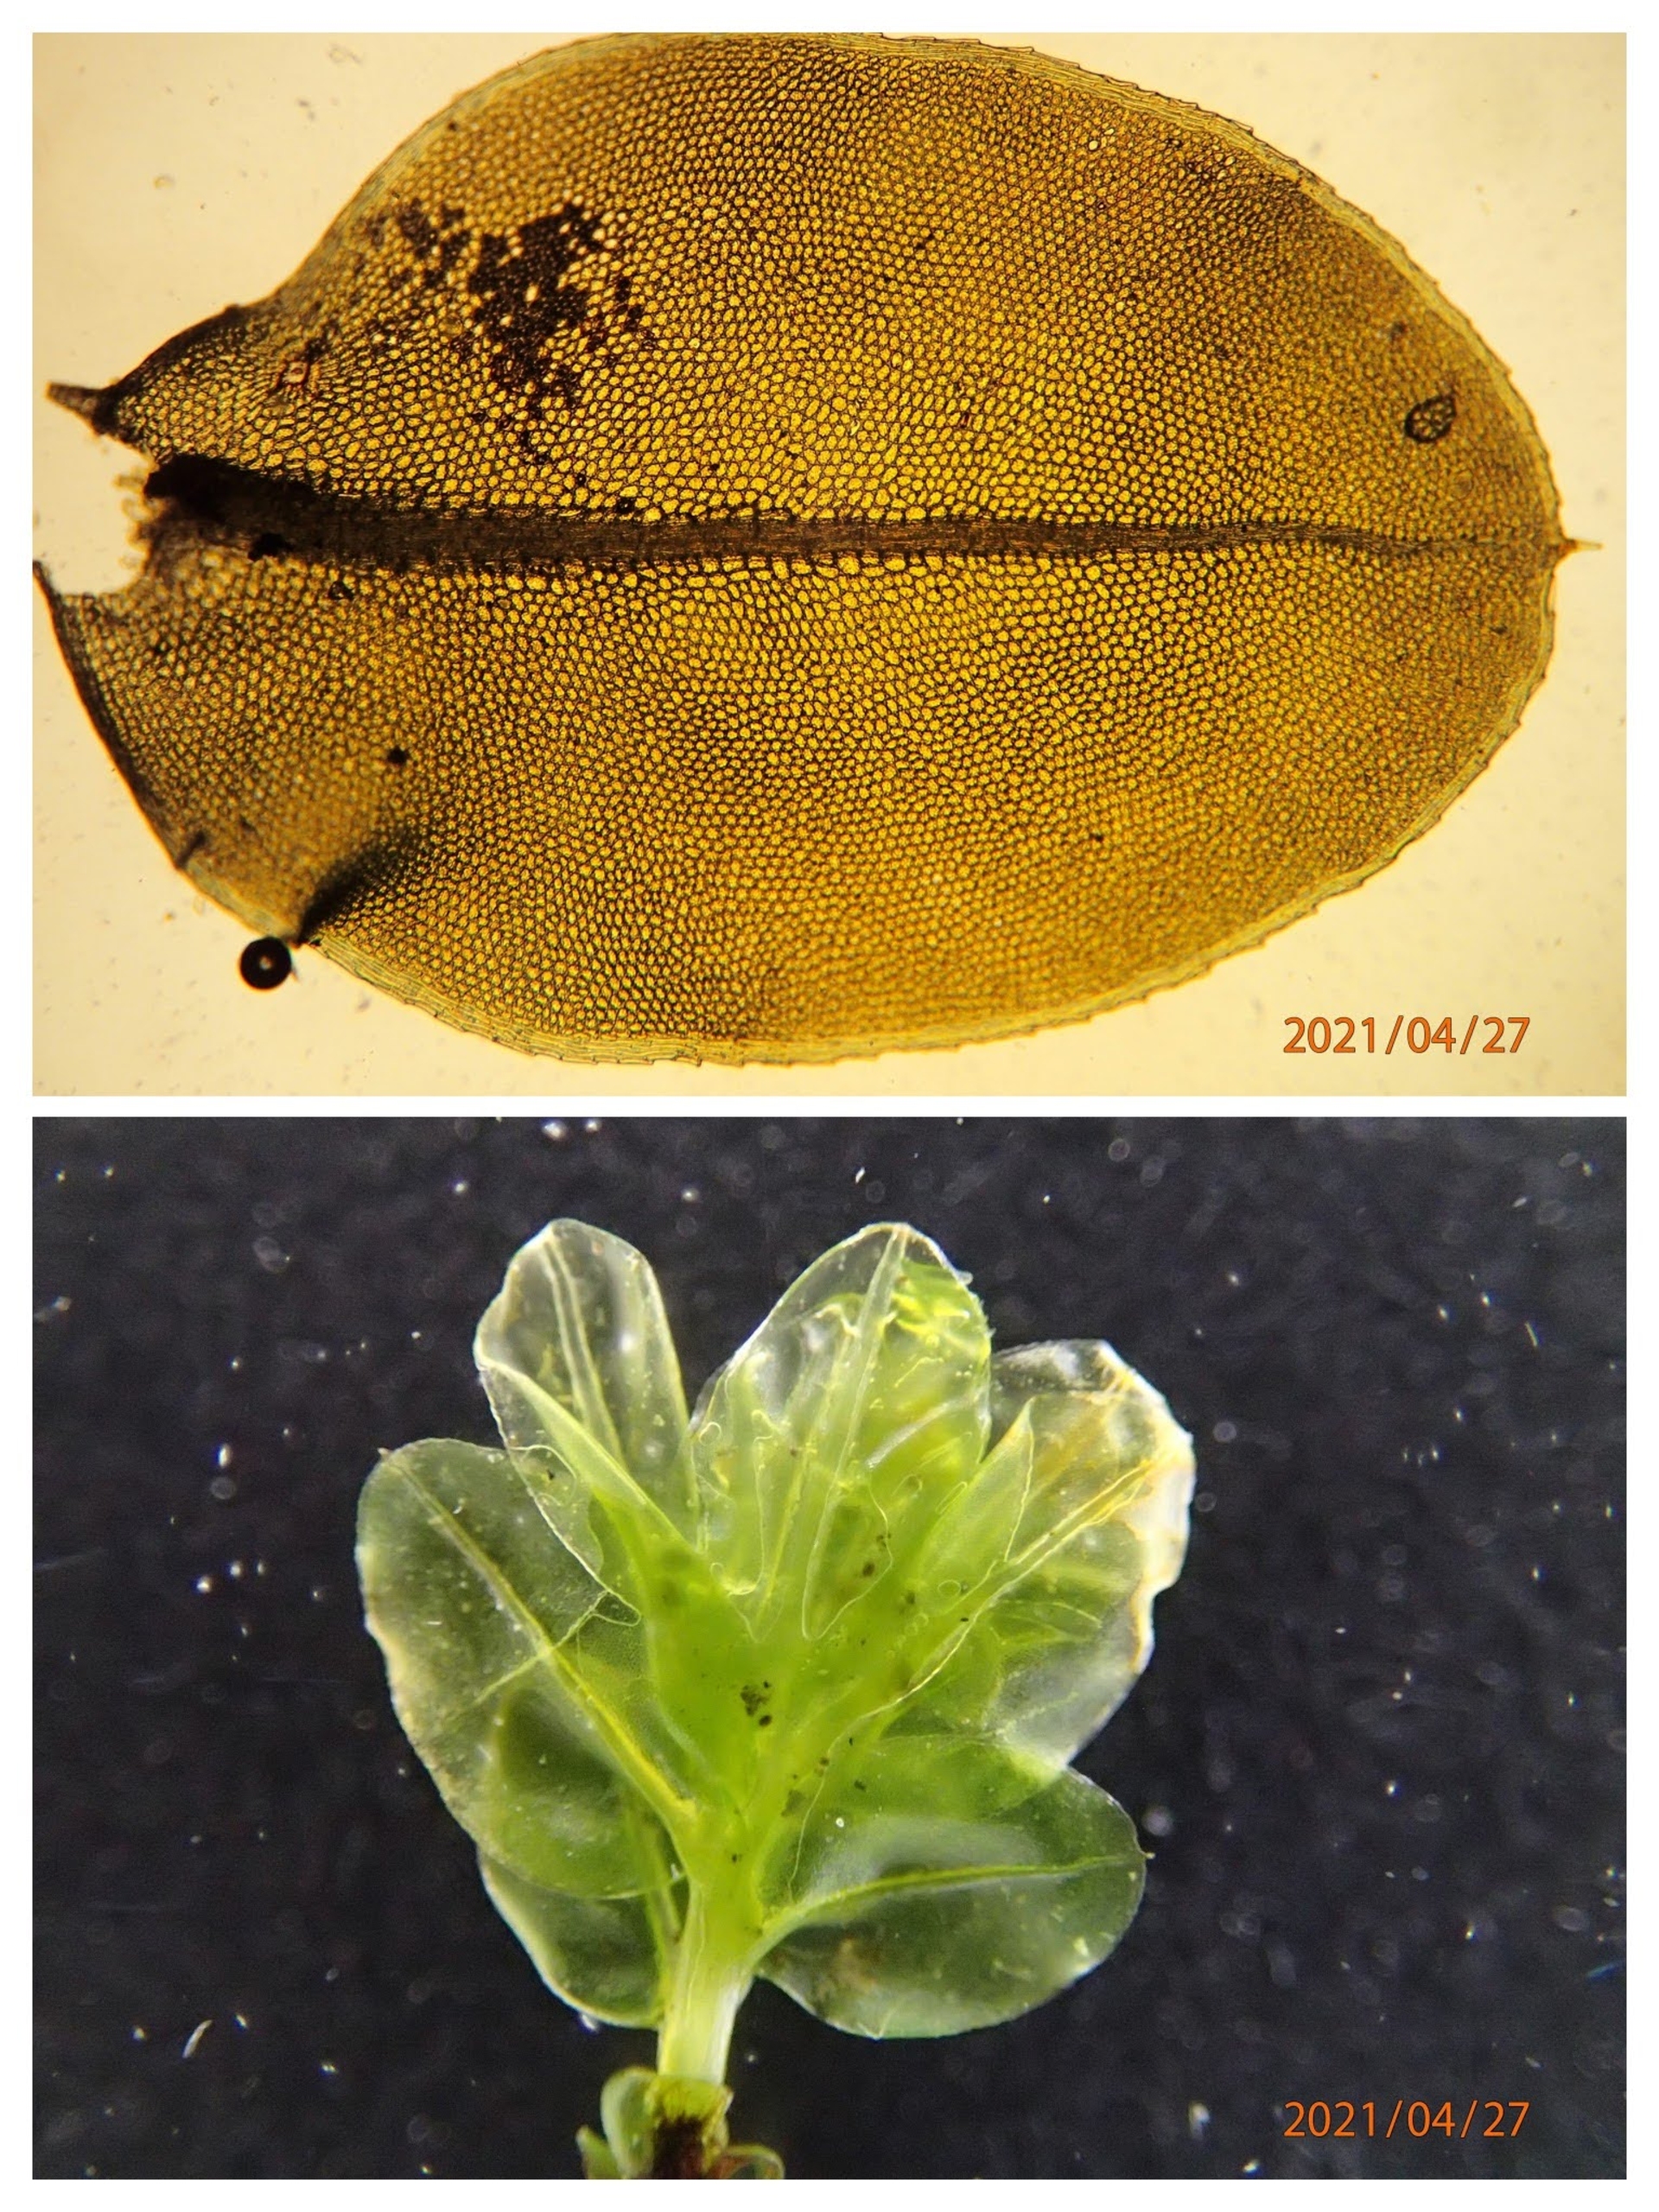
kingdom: Plantae
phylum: Bryophyta
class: Bryopsida
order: Bryales
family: Mniaceae
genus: Plagiomnium
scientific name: Plagiomnium rostratum
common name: Næb-krybstjerne
